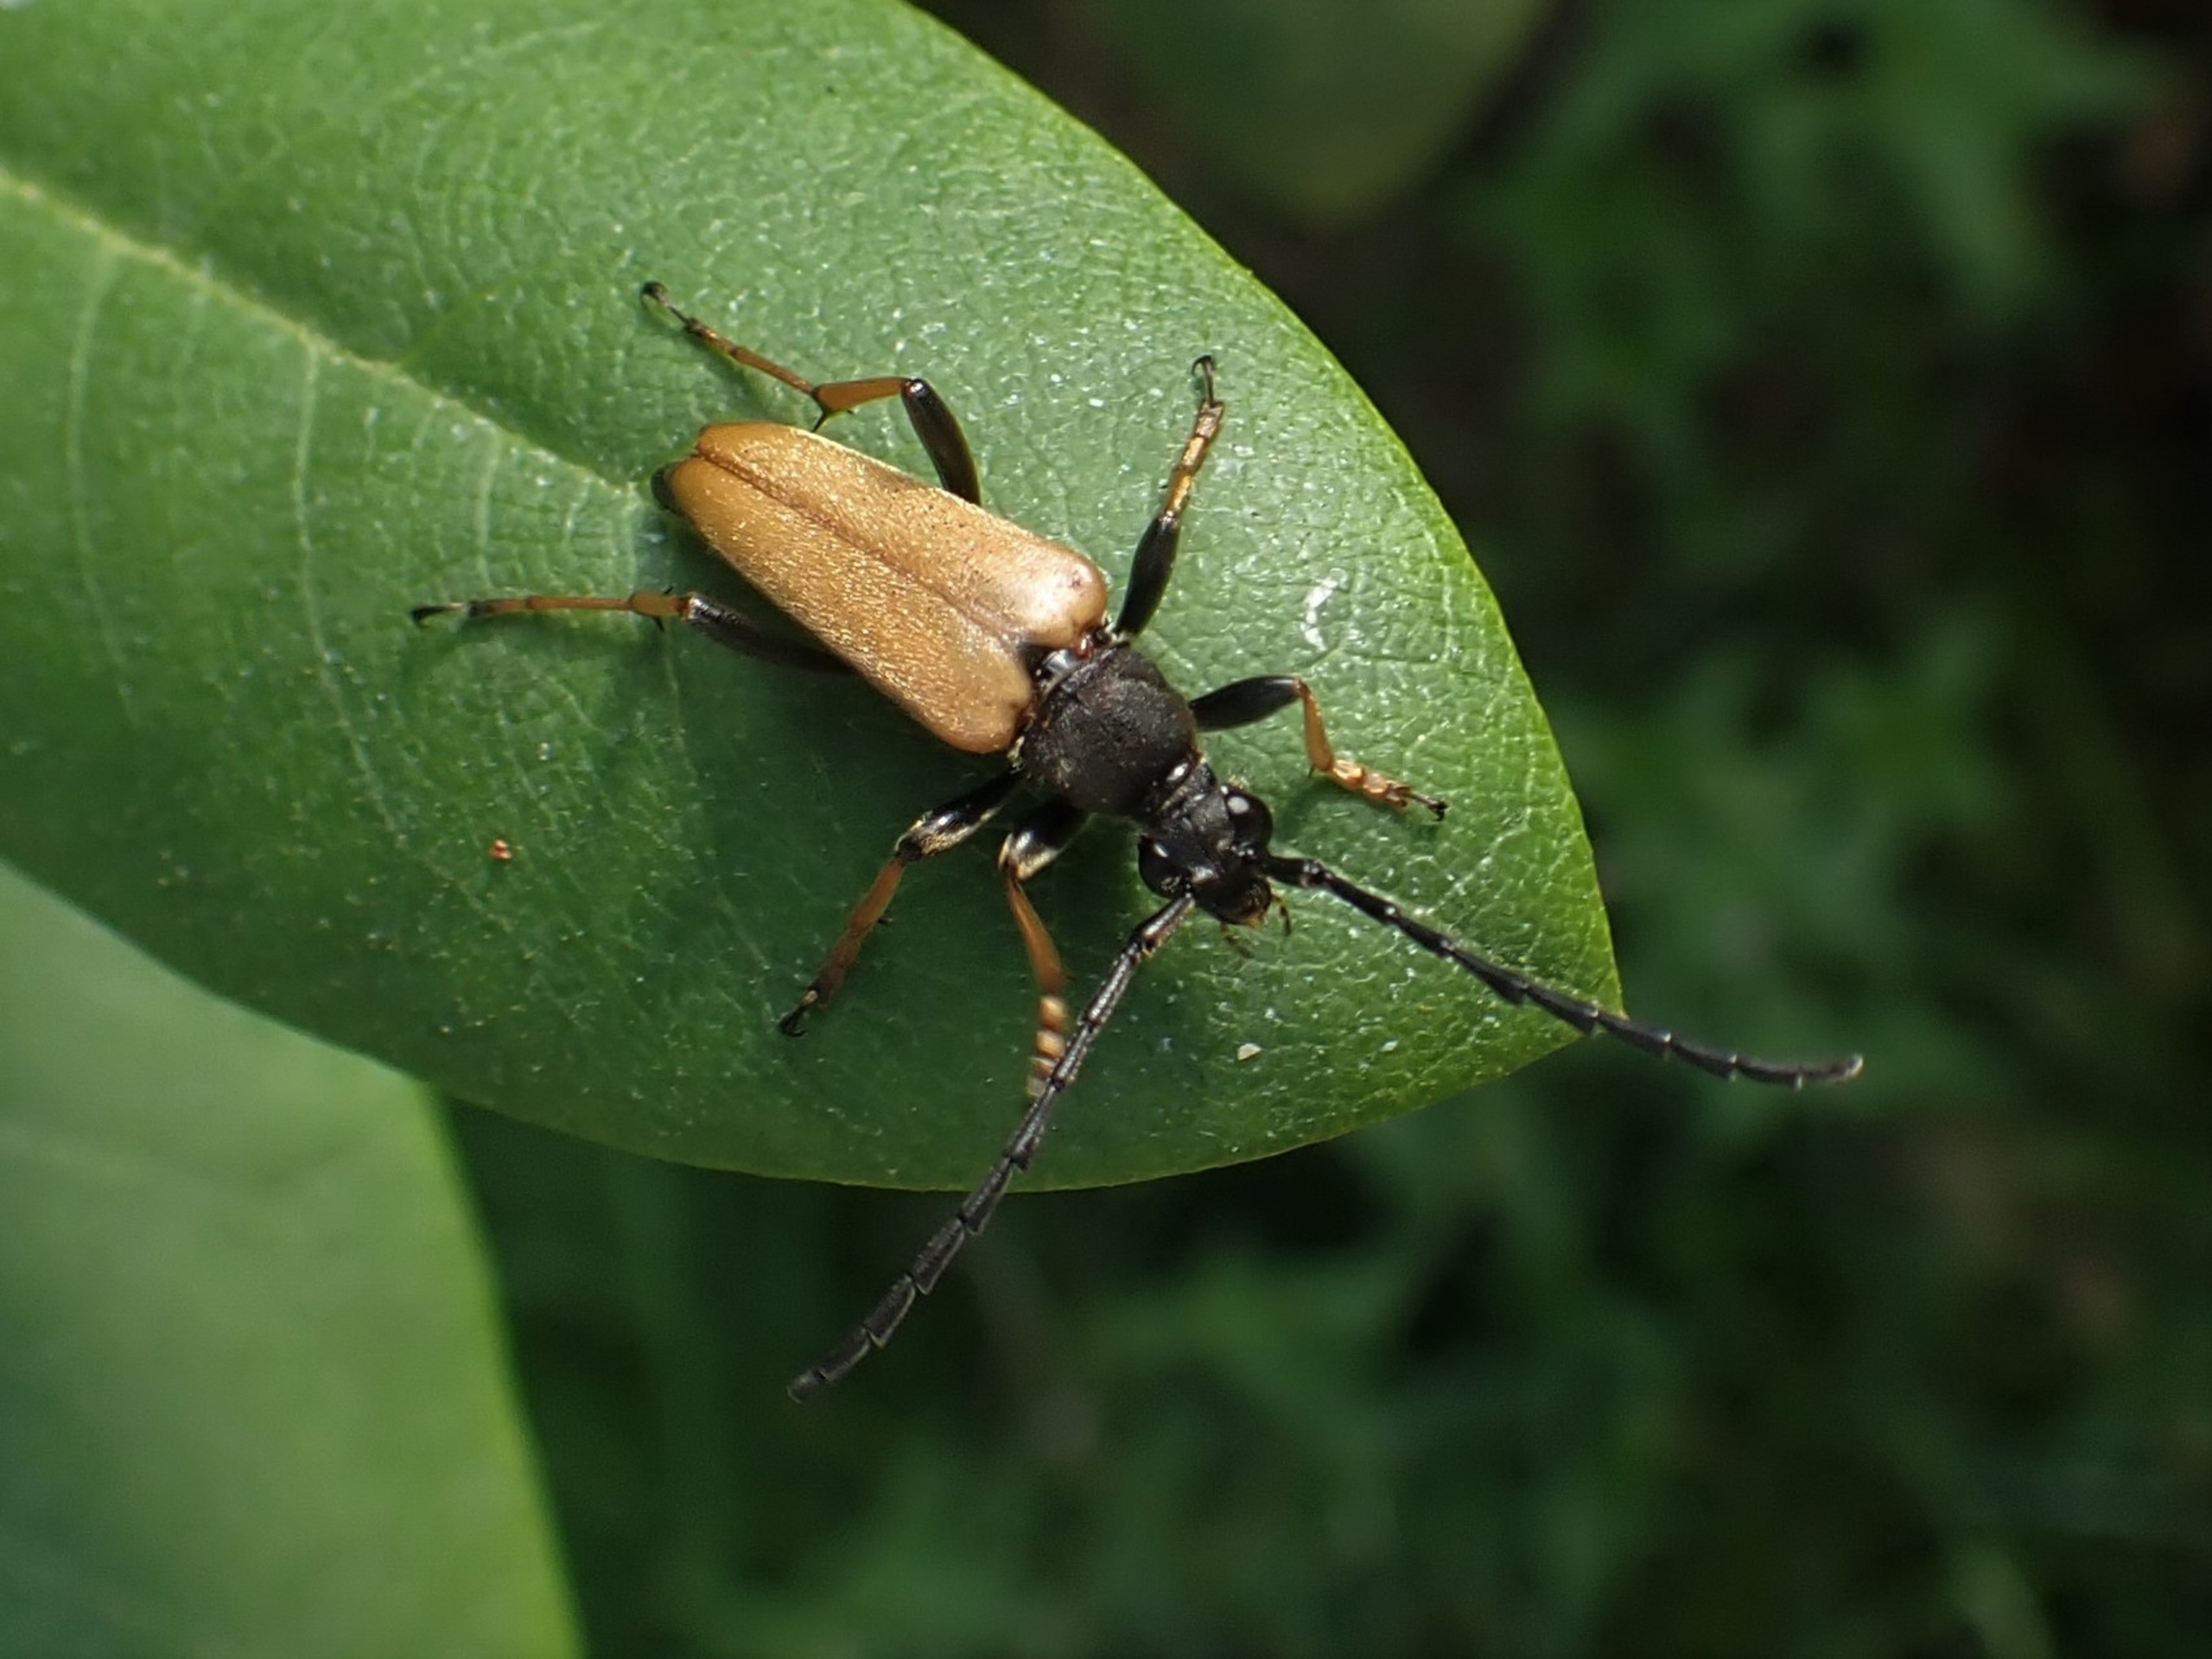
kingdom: Animalia
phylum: Arthropoda
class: Insecta
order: Coleoptera
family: Cerambycidae
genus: Stictoleptura
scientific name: Stictoleptura rubra
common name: Rød blomsterbuk
